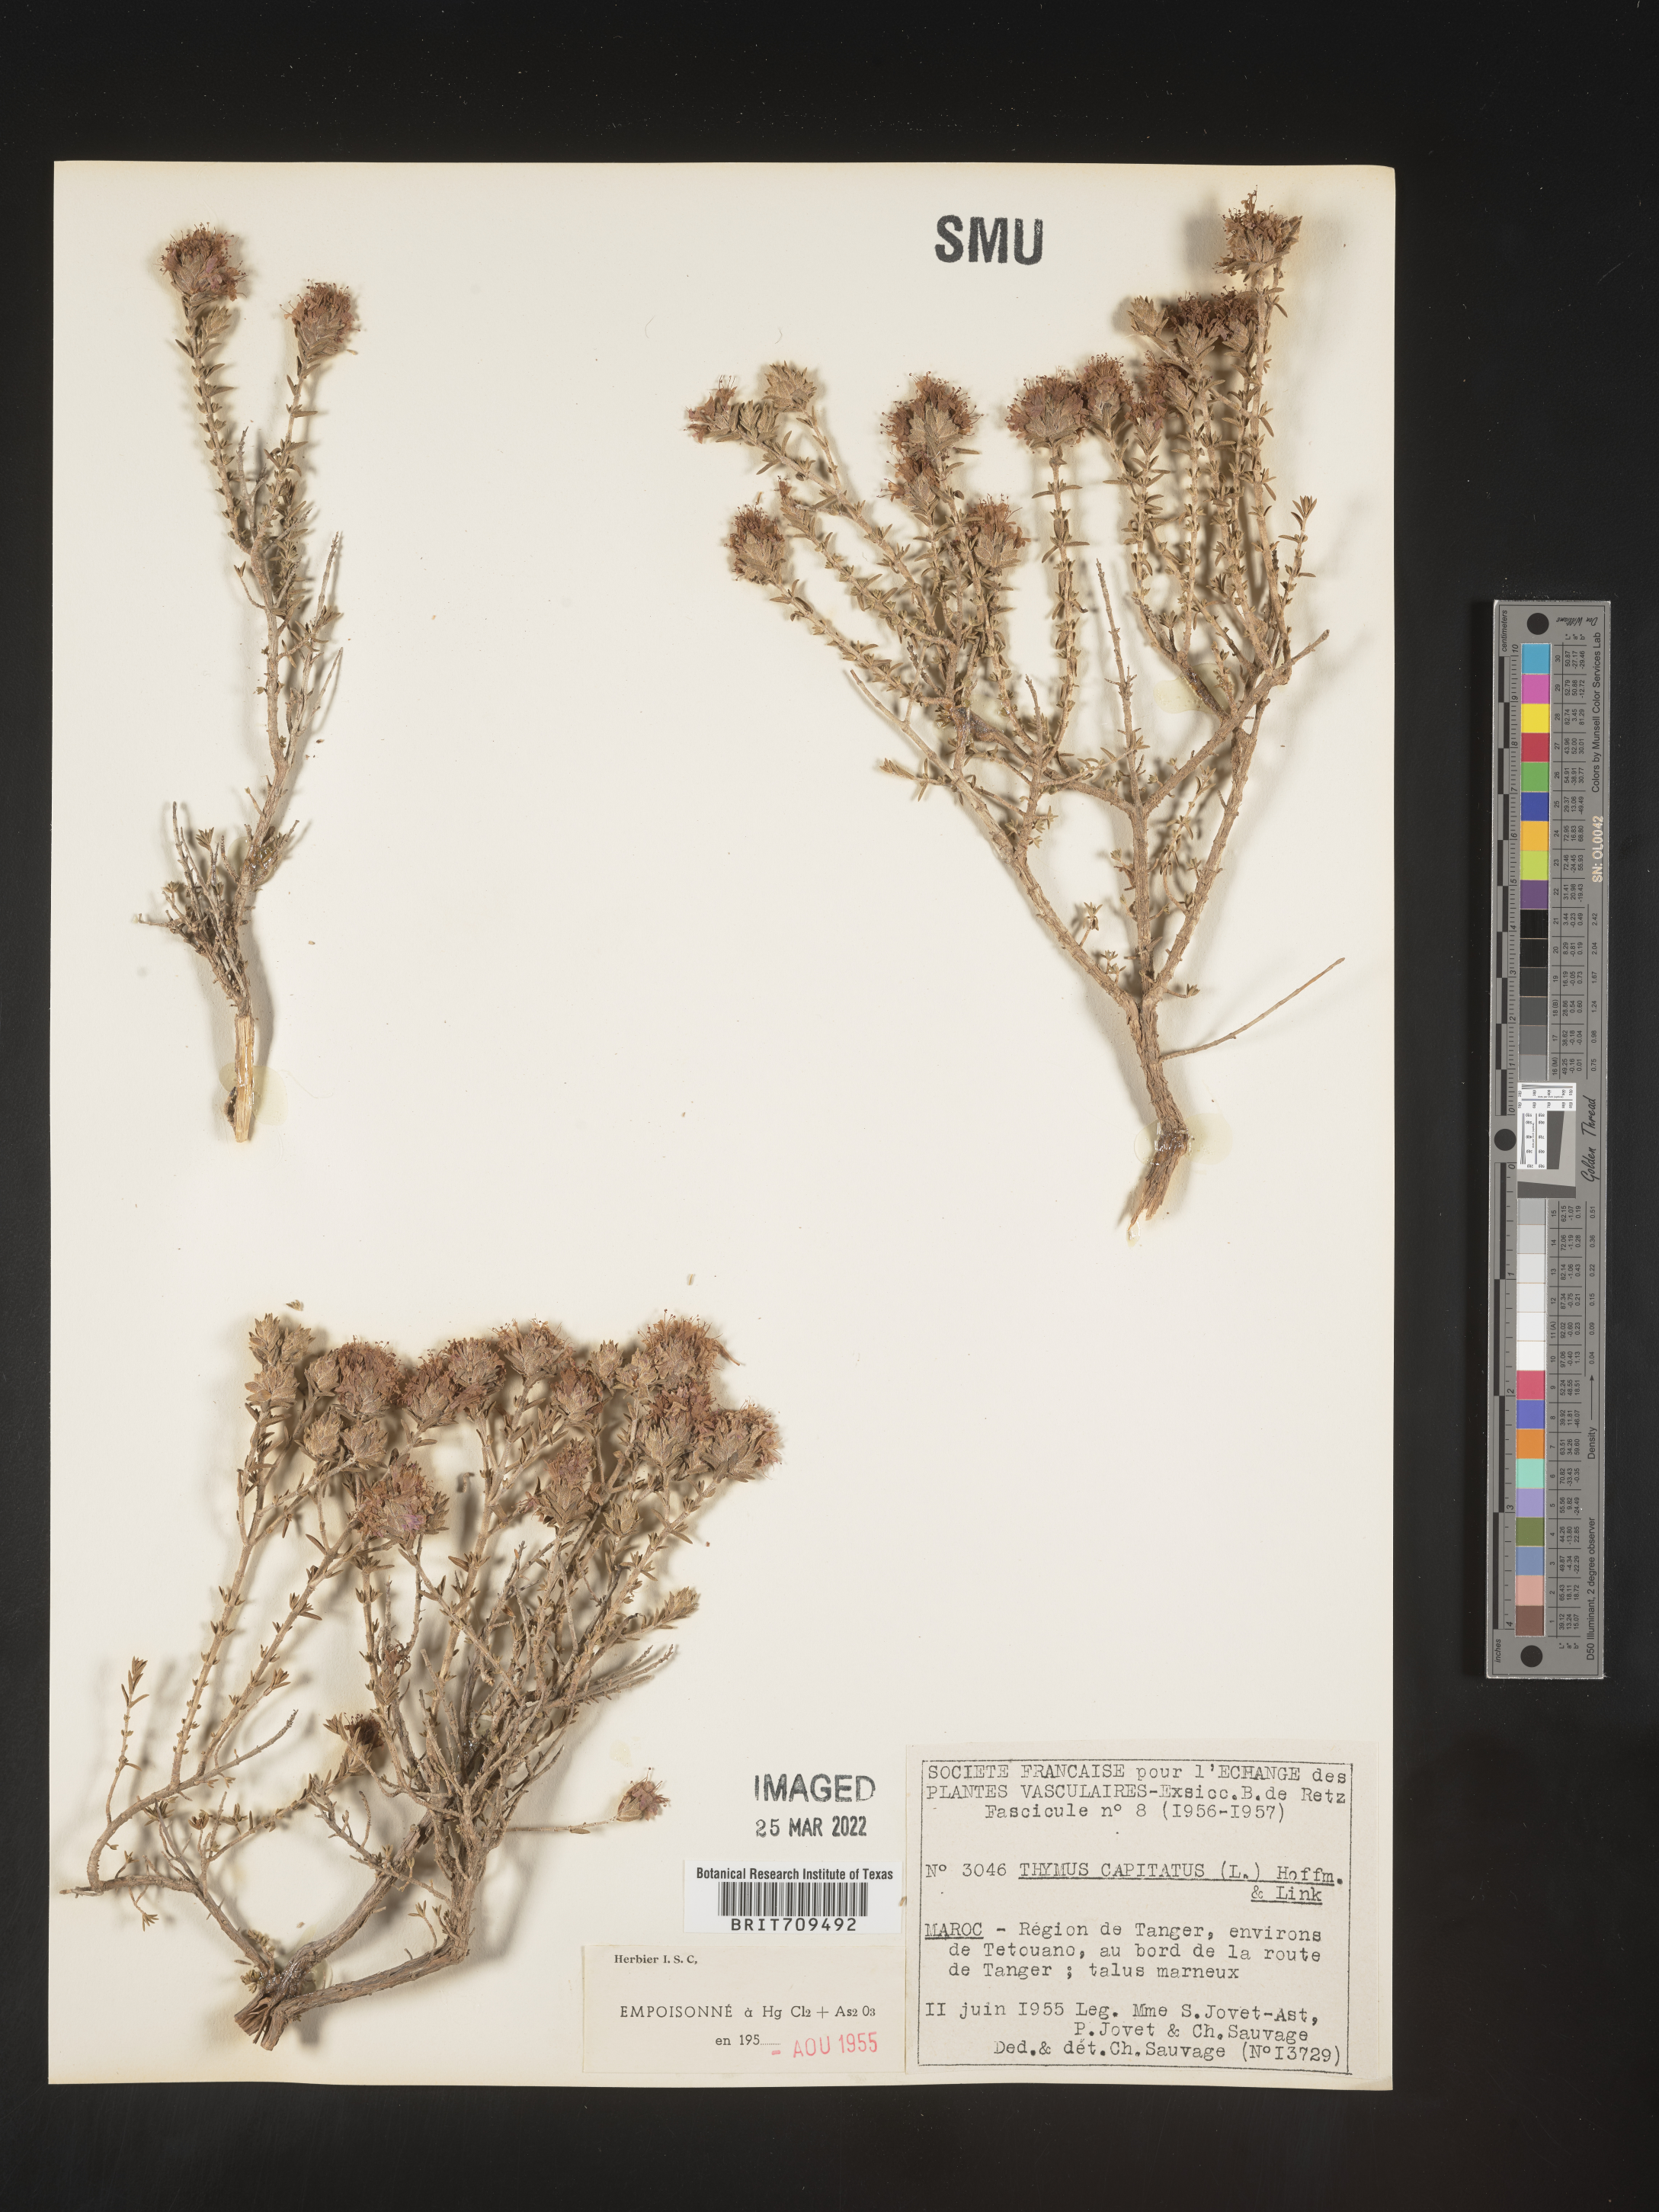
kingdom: Plantae
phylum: Tracheophyta
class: Magnoliopsida
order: Lamiales
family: Lamiaceae
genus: Thymus
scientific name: Thymus
